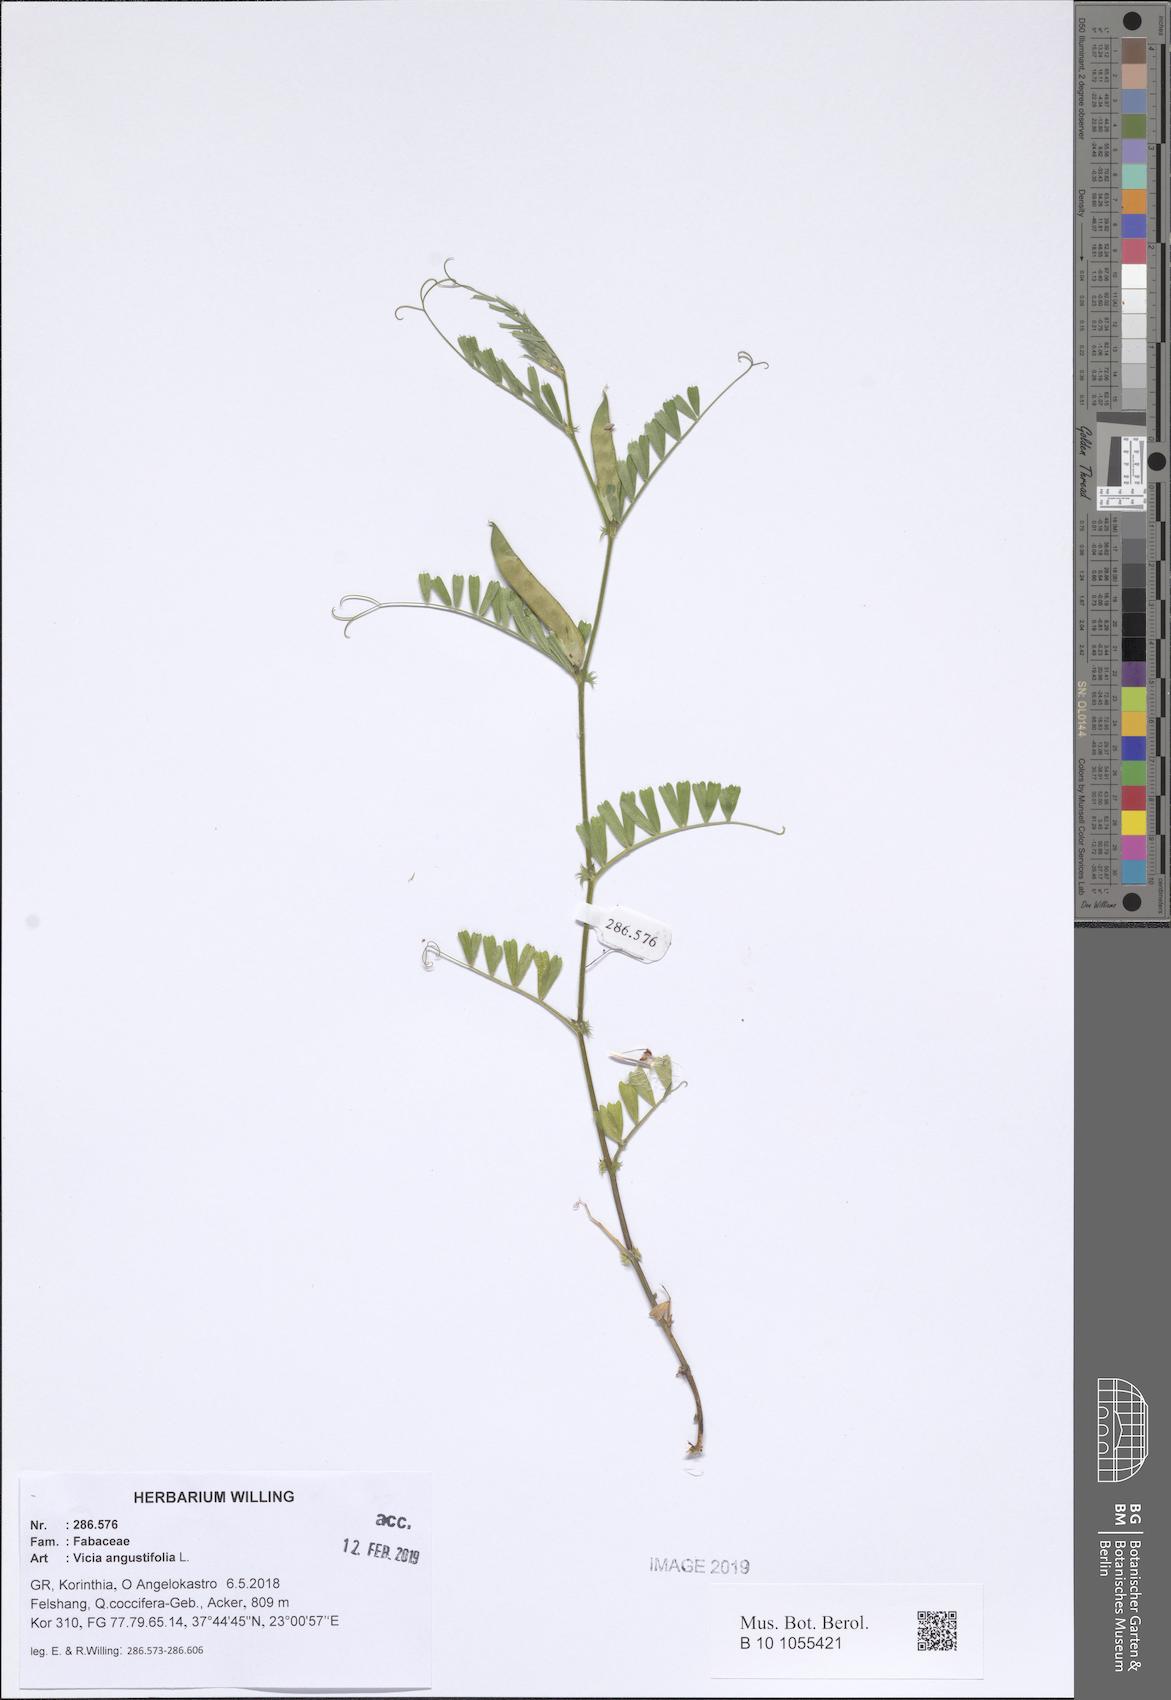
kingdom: Plantae
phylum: Tracheophyta
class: Magnoliopsida
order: Fabales
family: Fabaceae
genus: Vicia
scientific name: Vicia sativa
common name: Garden vetch
